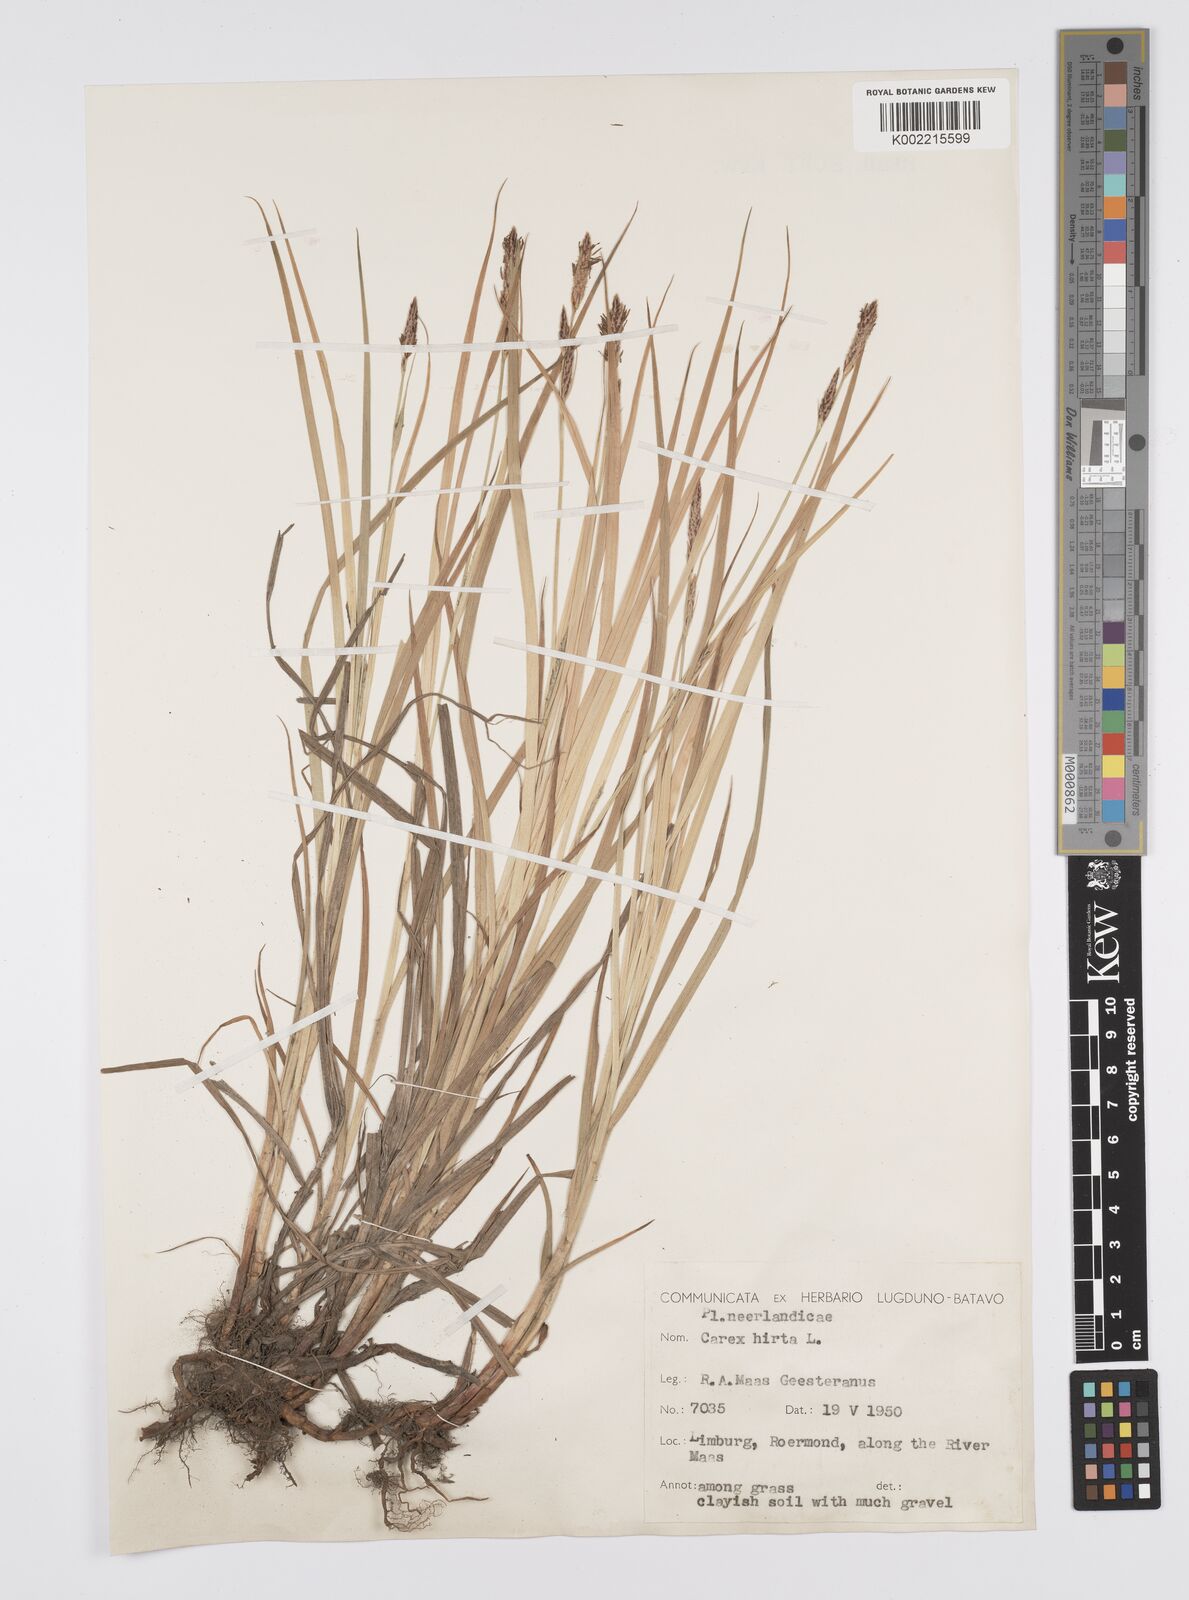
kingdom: Plantae
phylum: Tracheophyta
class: Liliopsida
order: Poales
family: Cyperaceae
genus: Carex
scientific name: Carex hirta
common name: Hairy sedge
